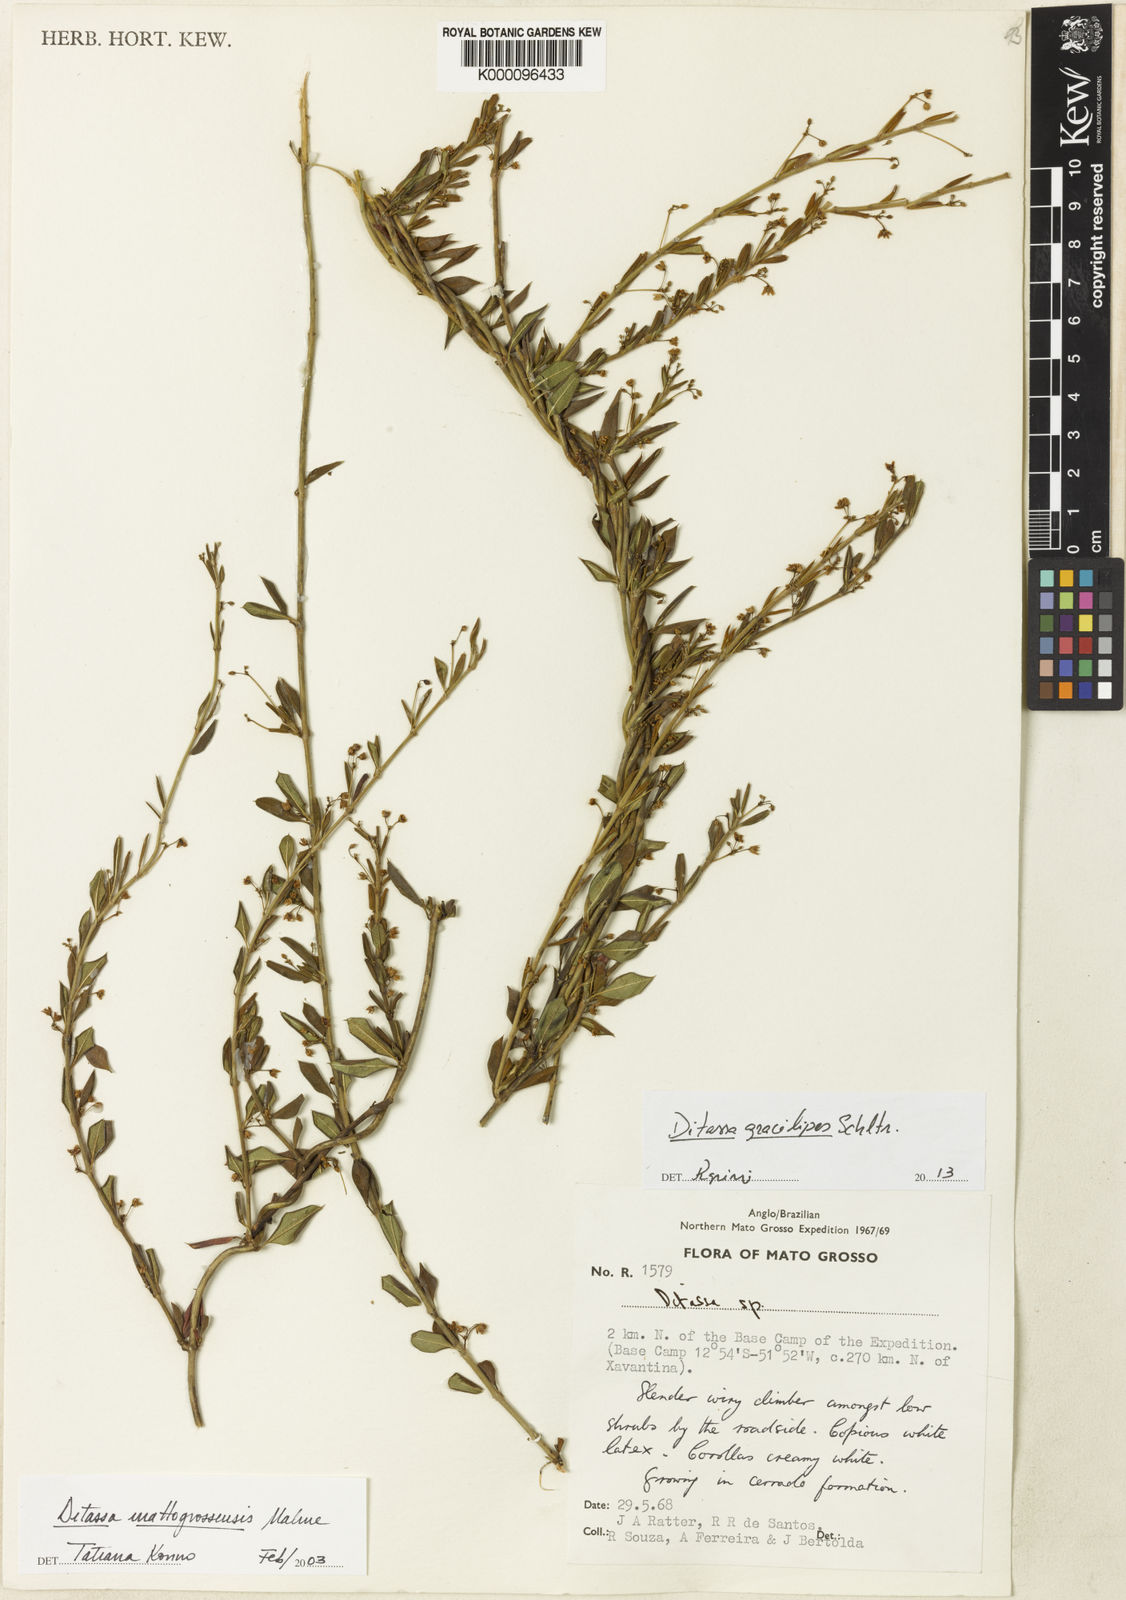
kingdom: Plantae
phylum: Tracheophyta
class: Magnoliopsida
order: Gentianales
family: Apocynaceae
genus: Ditassa
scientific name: Ditassa gracilipes
